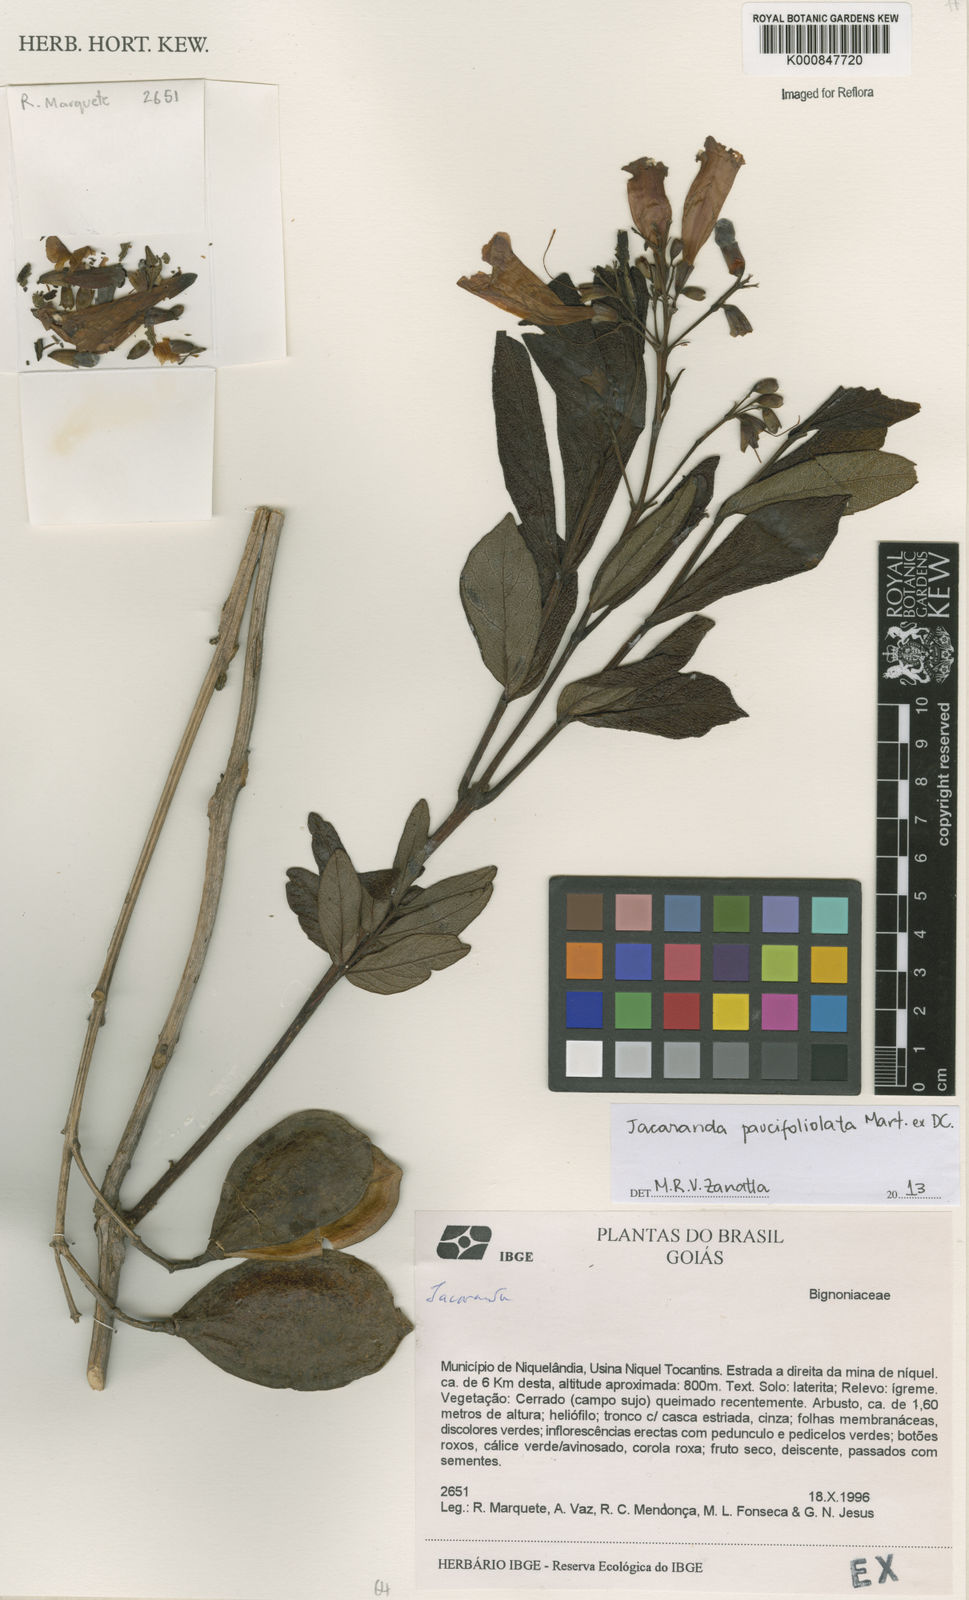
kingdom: Plantae
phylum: Tracheophyta
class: Magnoliopsida
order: Lamiales
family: Bignoniaceae
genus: Jacaranda
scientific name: Jacaranda
